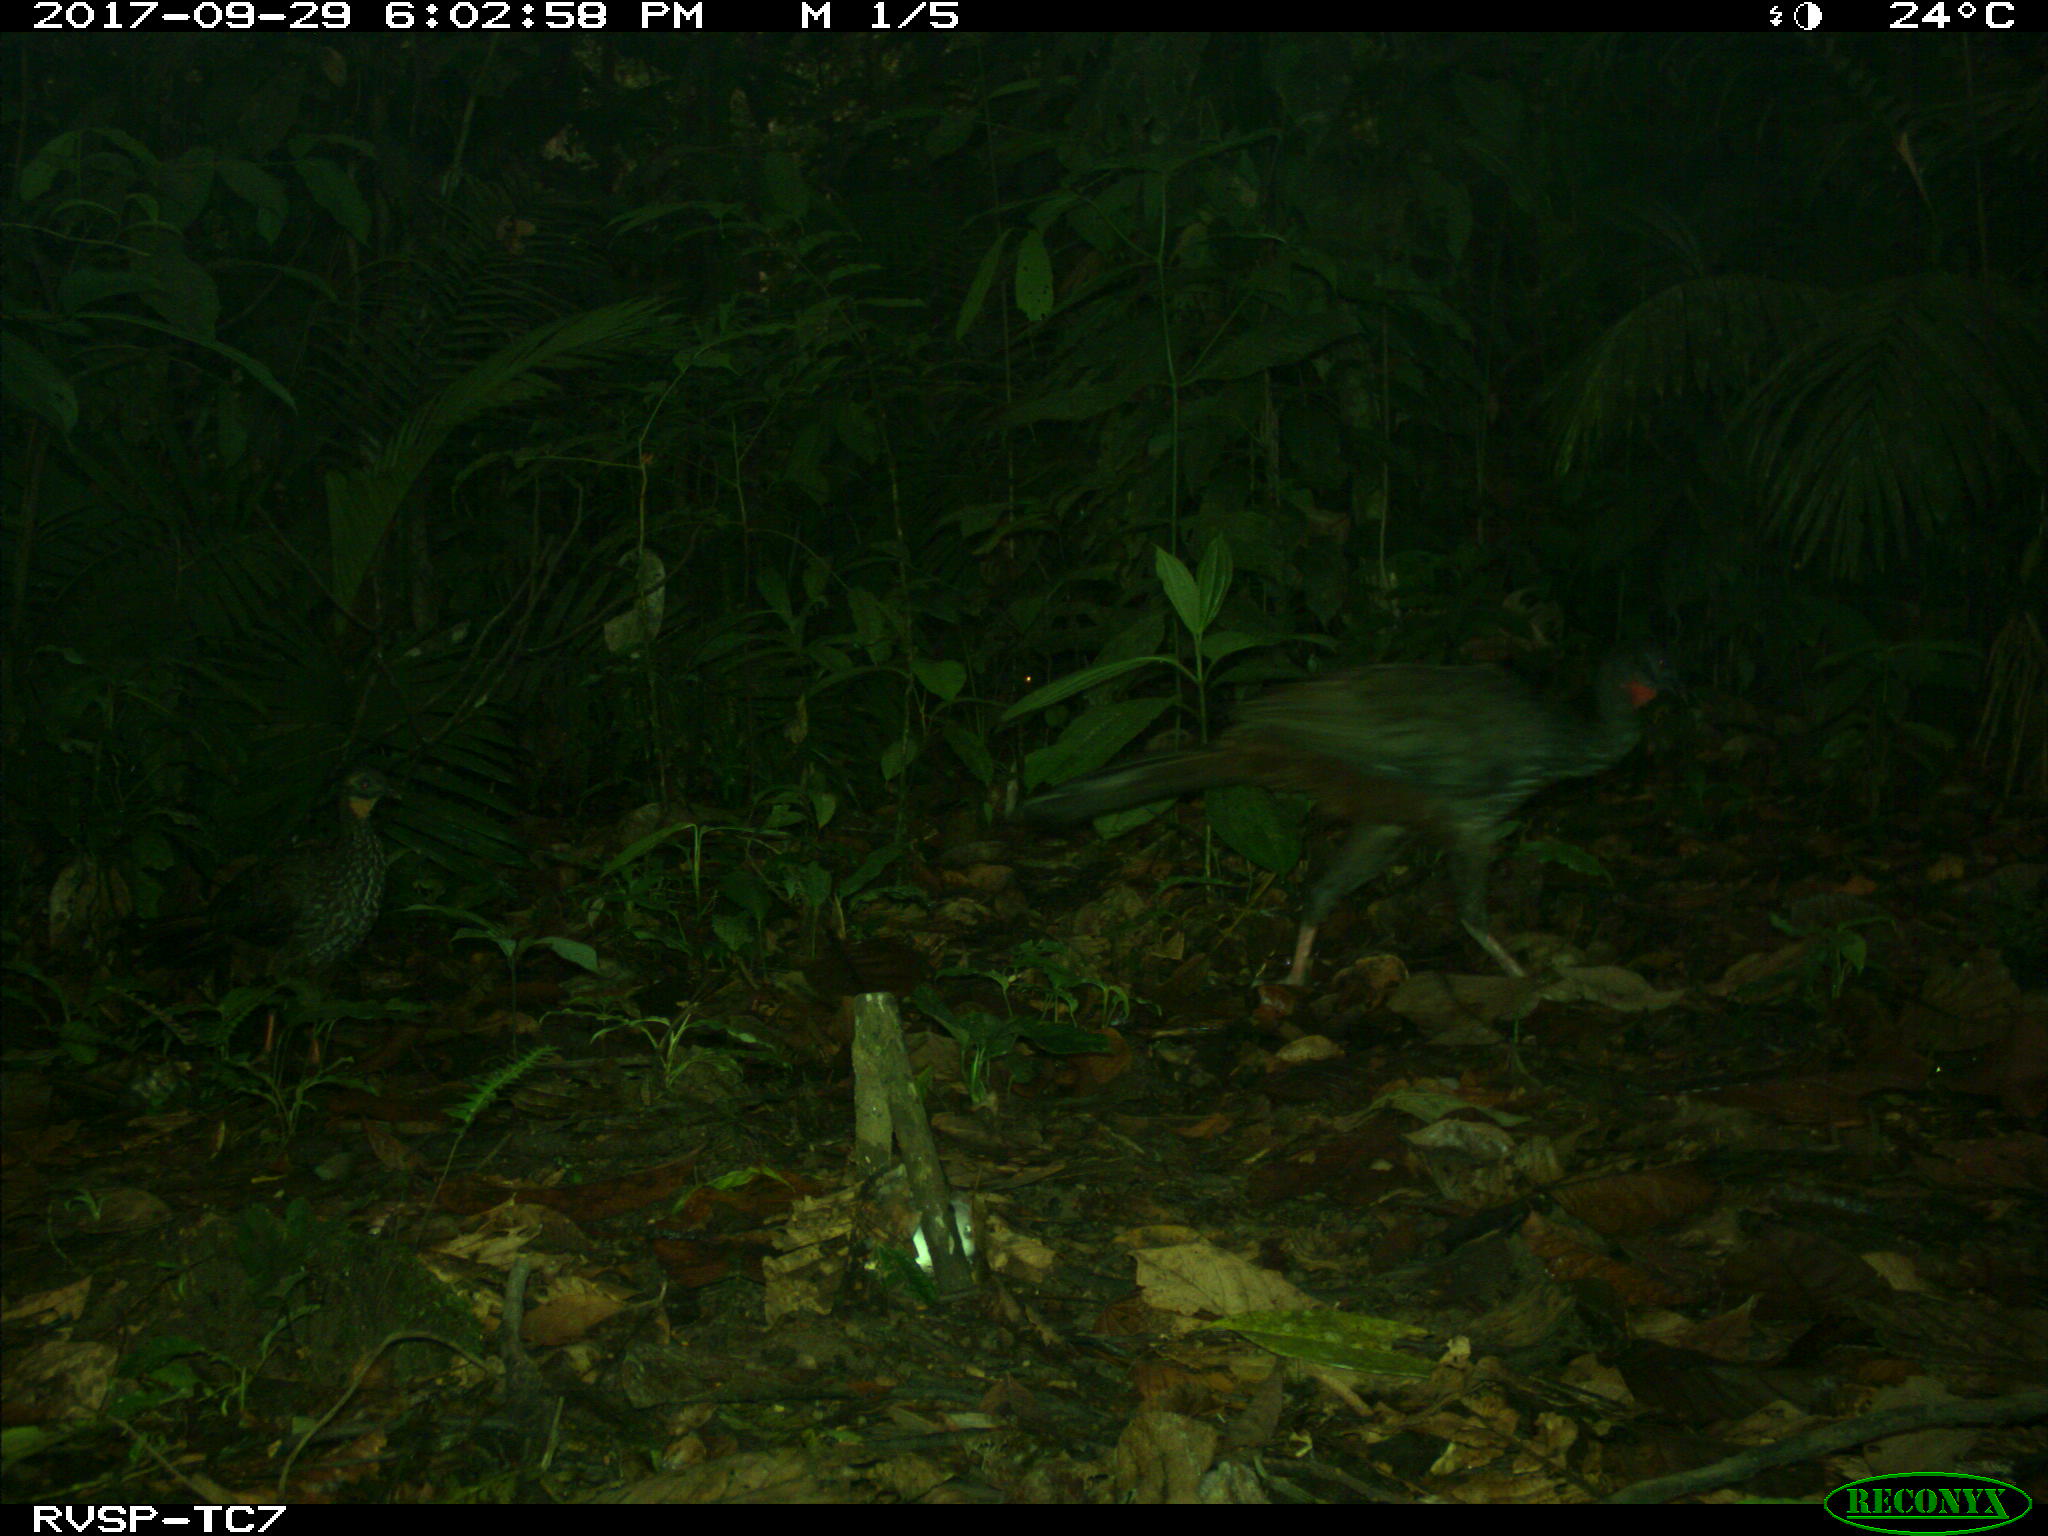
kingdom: Animalia
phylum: Chordata
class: Aves
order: Galliformes
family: Cracidae
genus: Penelope
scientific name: Penelope purpurascens
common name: Crested guan
